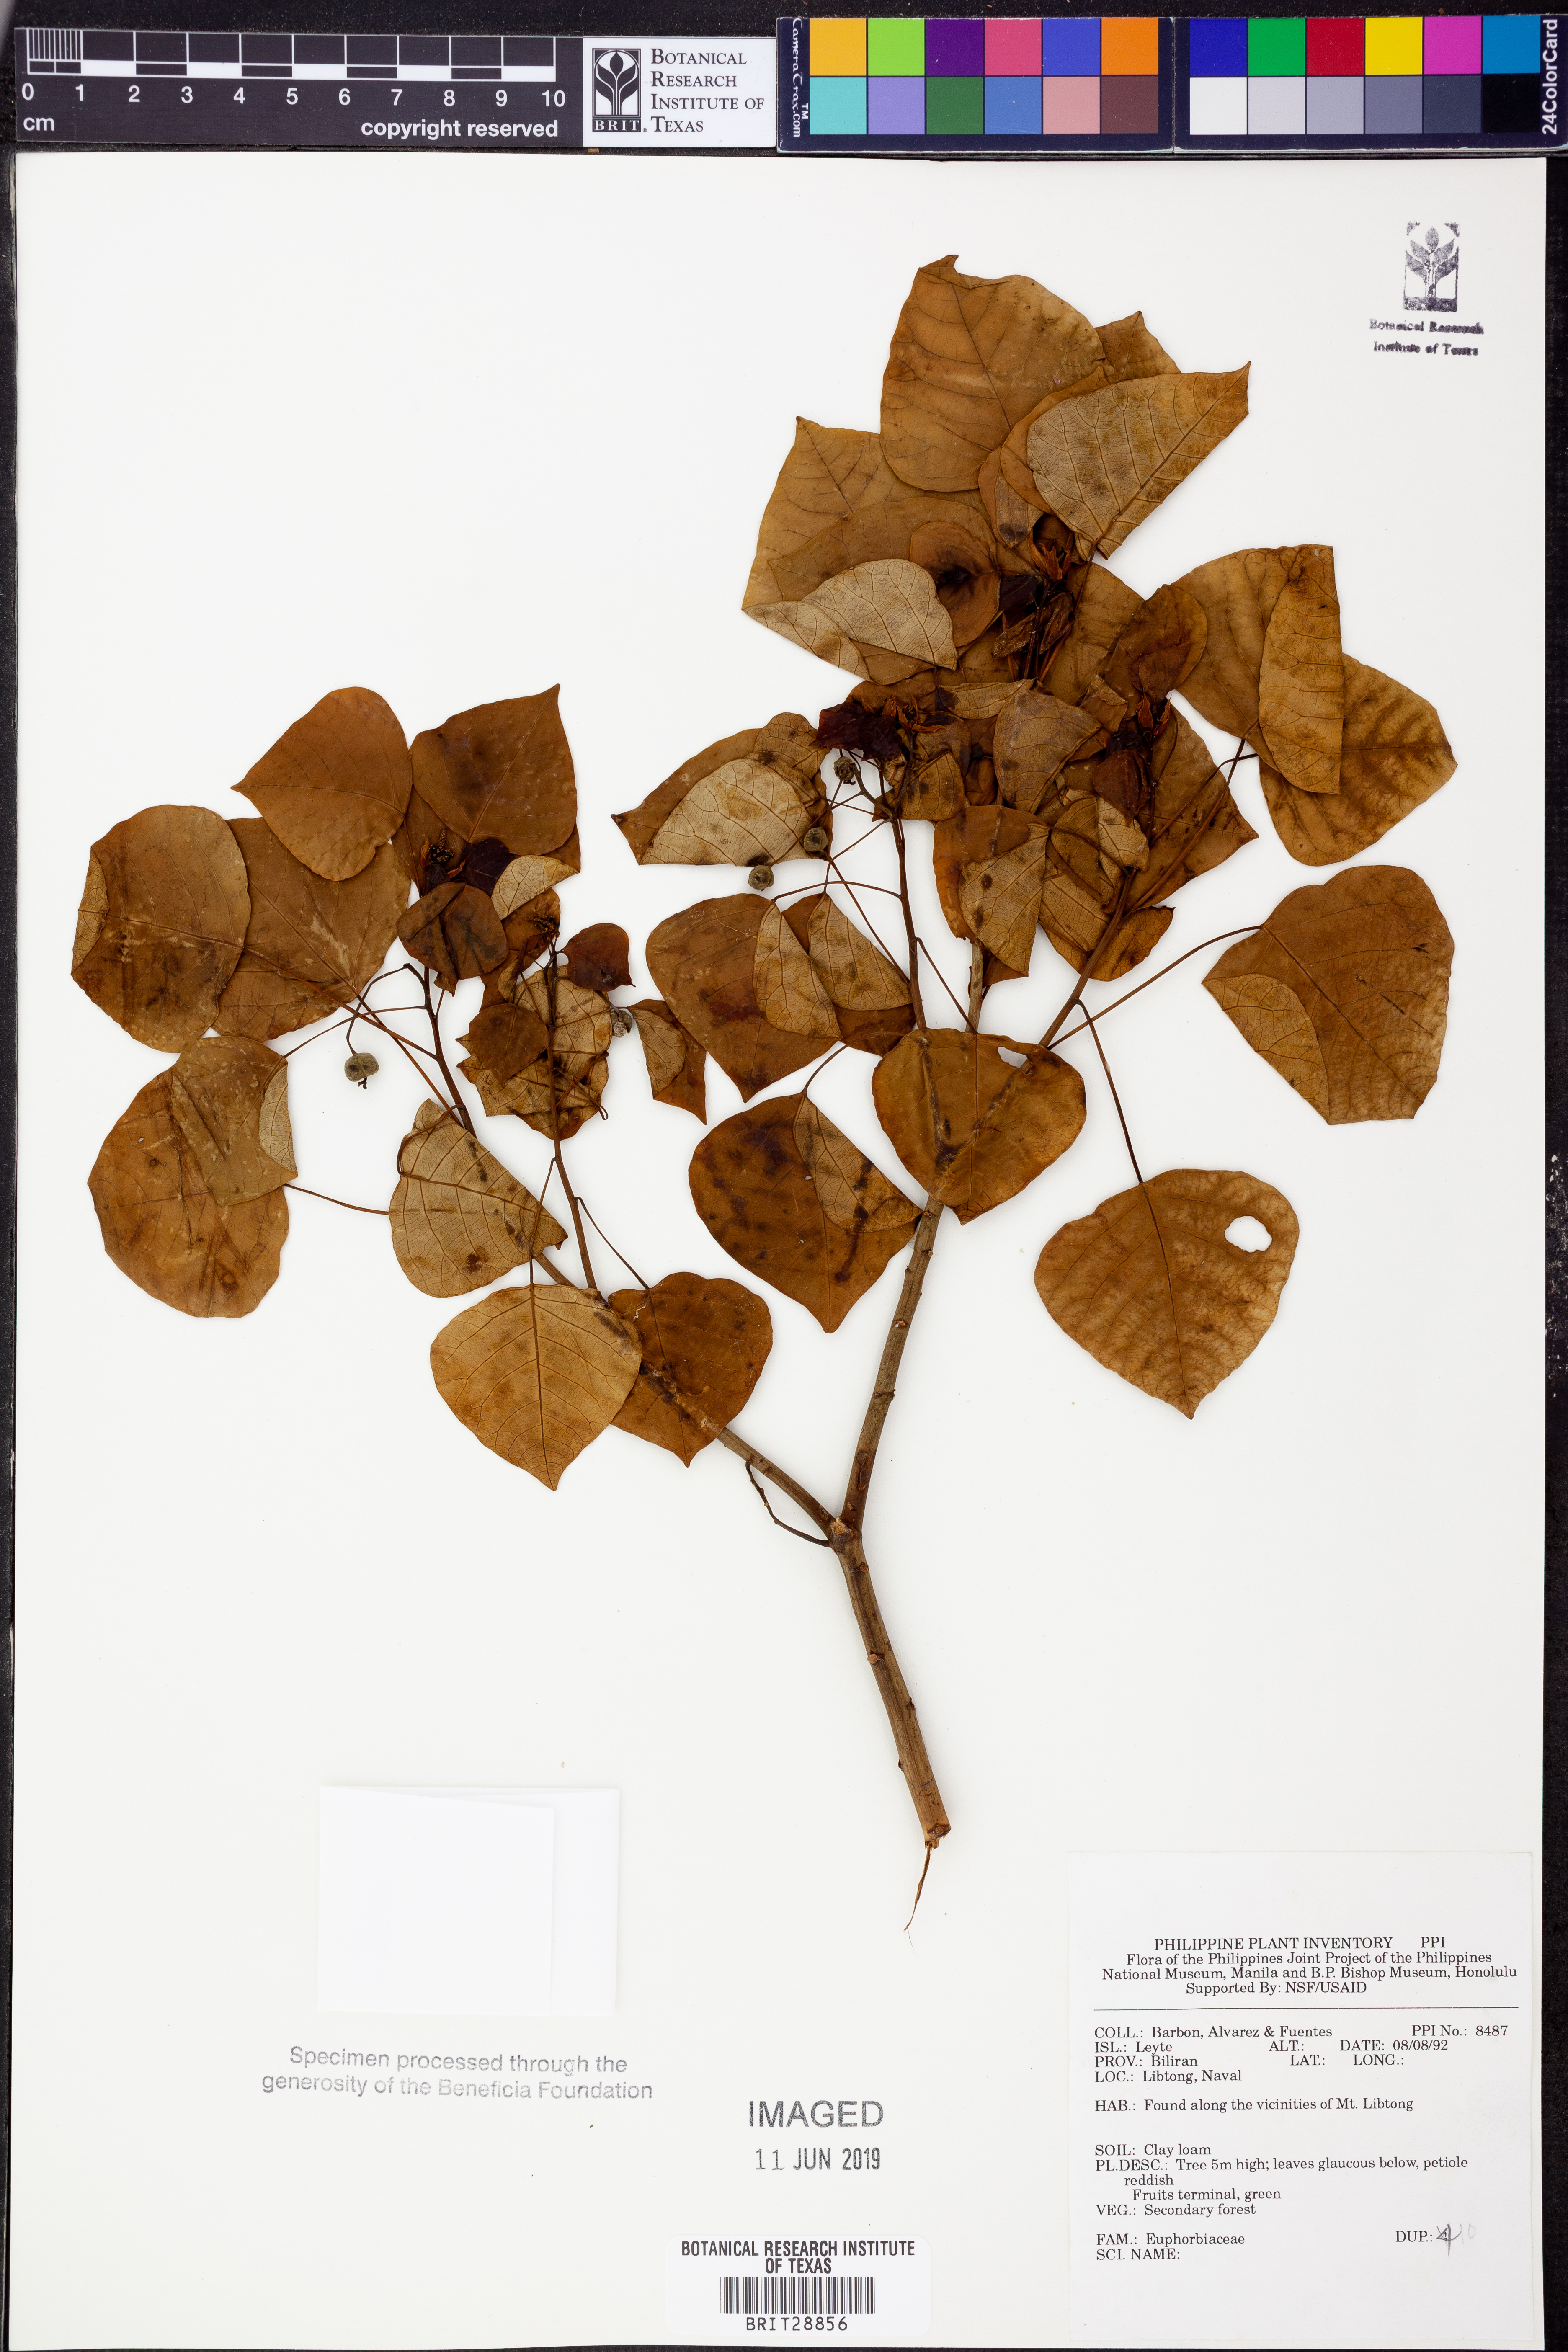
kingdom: Plantae
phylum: Tracheophyta
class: Magnoliopsida
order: Malpighiales
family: Euphorbiaceae
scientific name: Euphorbiaceae
